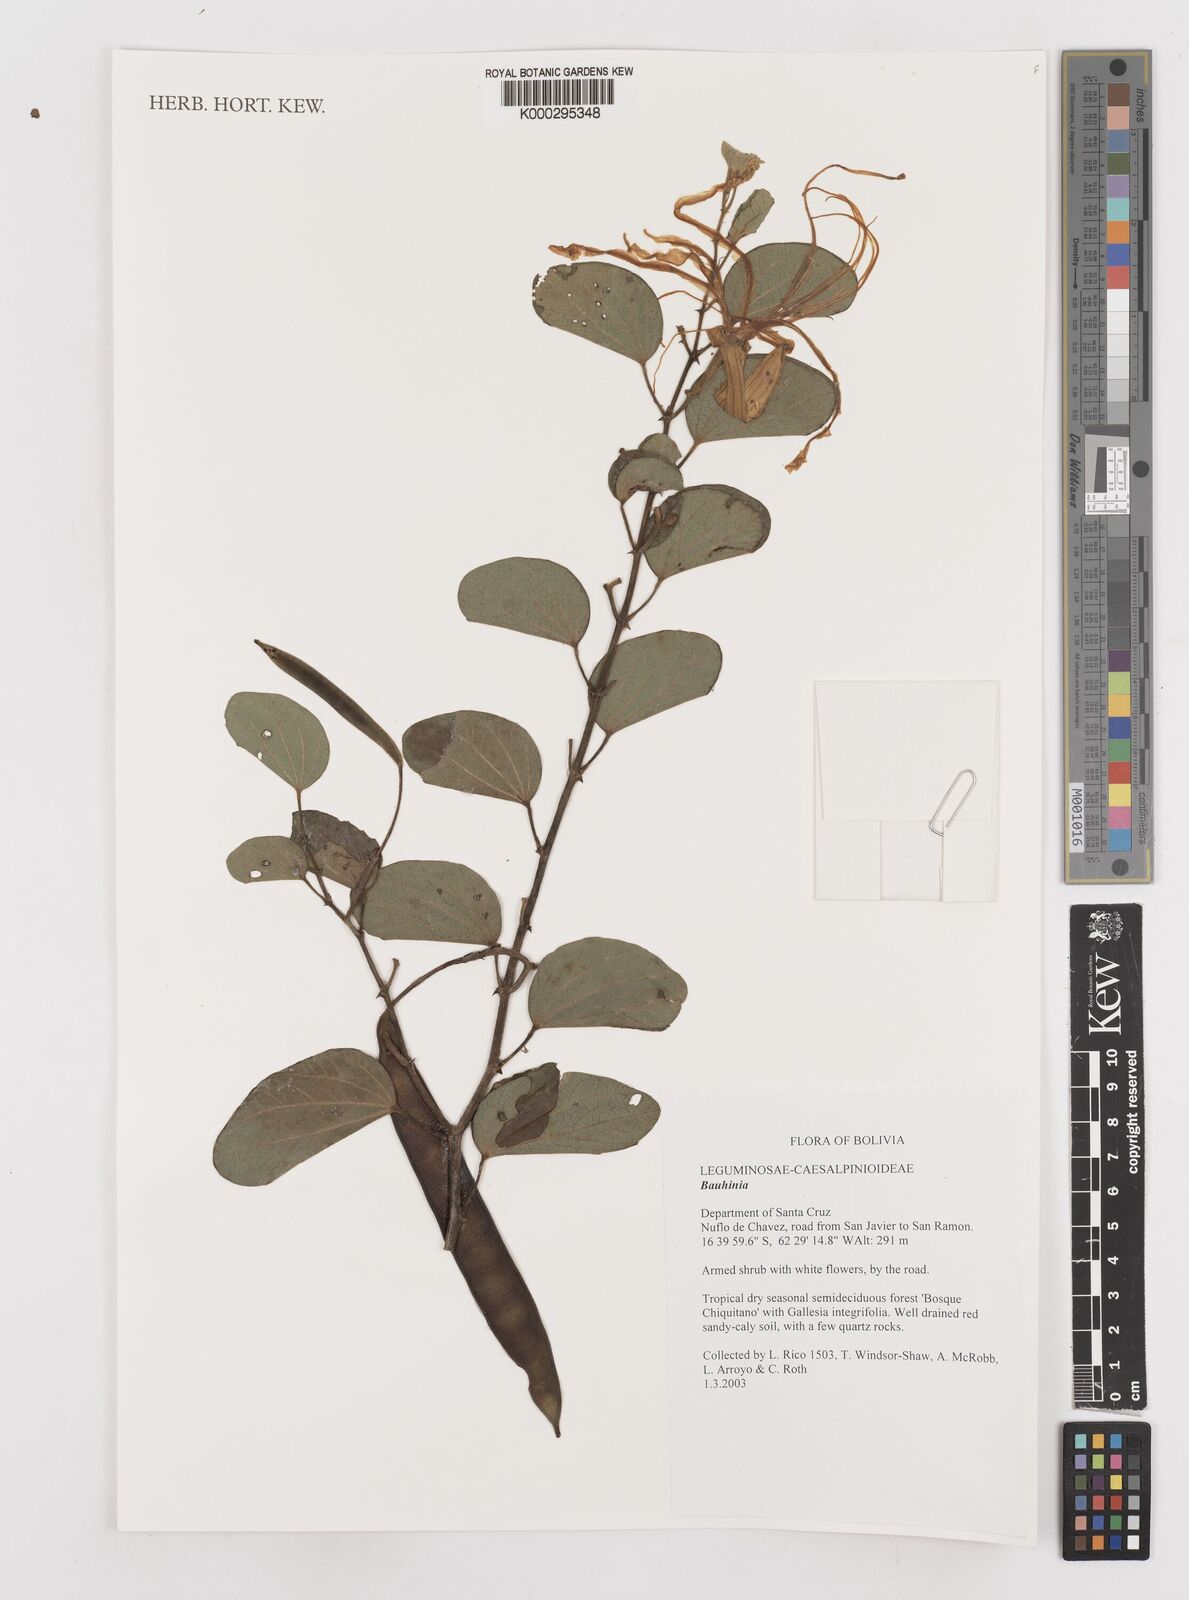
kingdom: Plantae
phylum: Tracheophyta
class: Magnoliopsida
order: Fabales
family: Fabaceae
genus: Bauhinia
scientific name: Bauhinia
